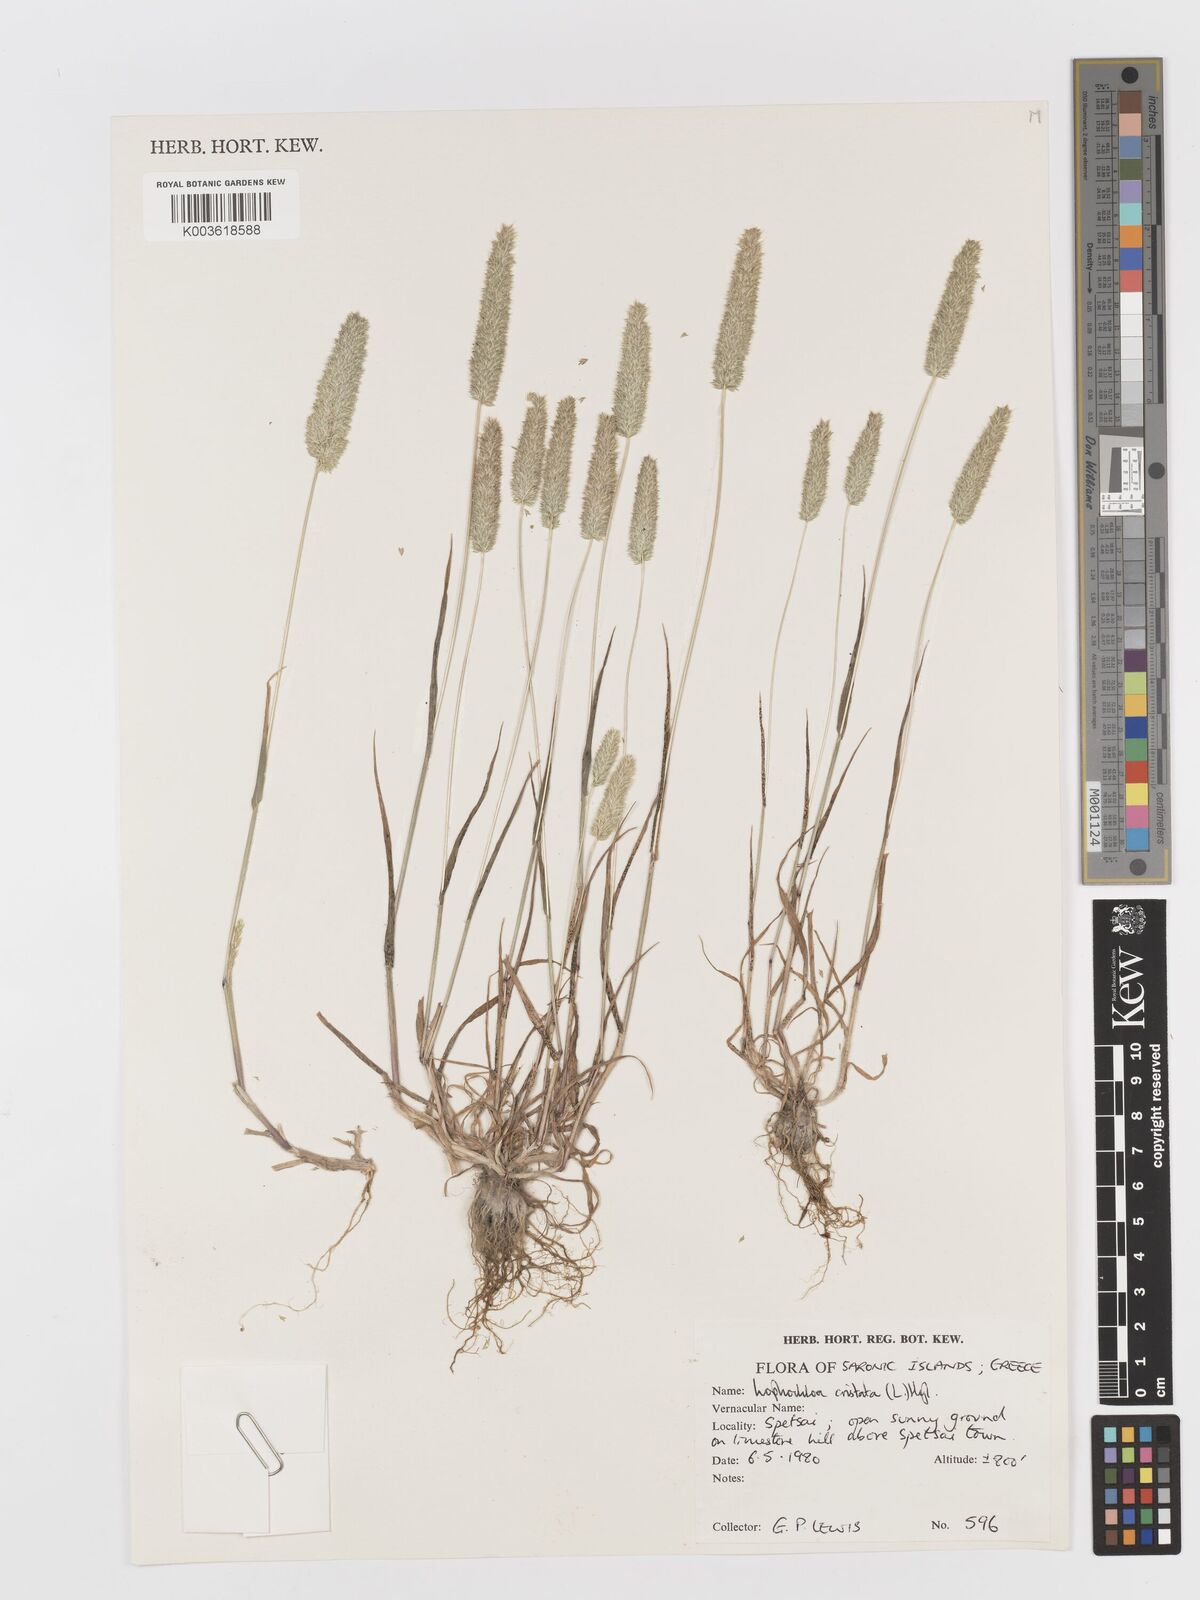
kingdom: Plantae
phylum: Tracheophyta
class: Liliopsida
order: Poales
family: Poaceae
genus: Rostraria
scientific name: Rostraria cristata
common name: Mediterranean hair-grass
